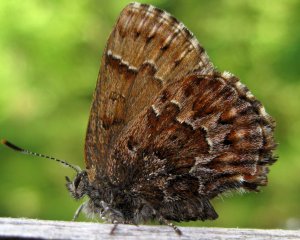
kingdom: Animalia
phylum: Arthropoda
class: Insecta
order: Lepidoptera
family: Lycaenidae
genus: Incisalia
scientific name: Incisalia niphon
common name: Eastern Pine Elfin
